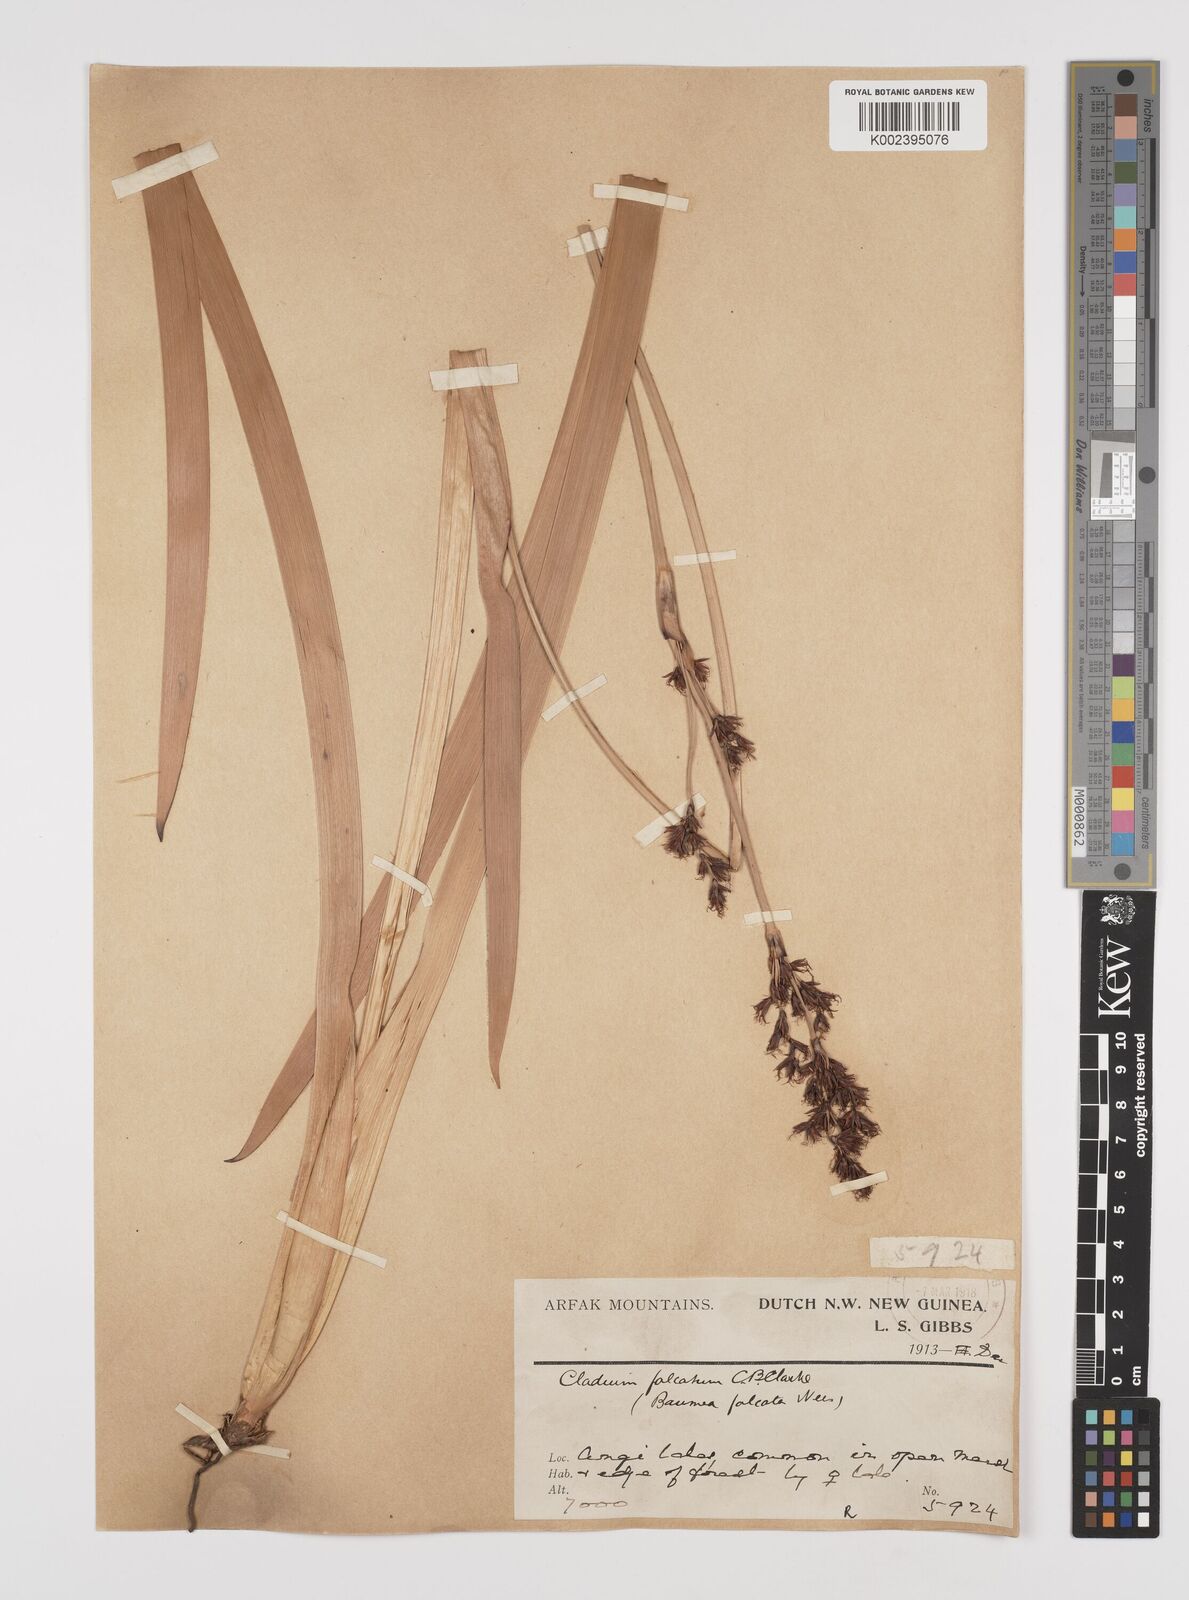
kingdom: Plantae
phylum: Tracheophyta
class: Liliopsida
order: Poales
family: Cyperaceae
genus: Machaerina
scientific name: Machaerina falcata
